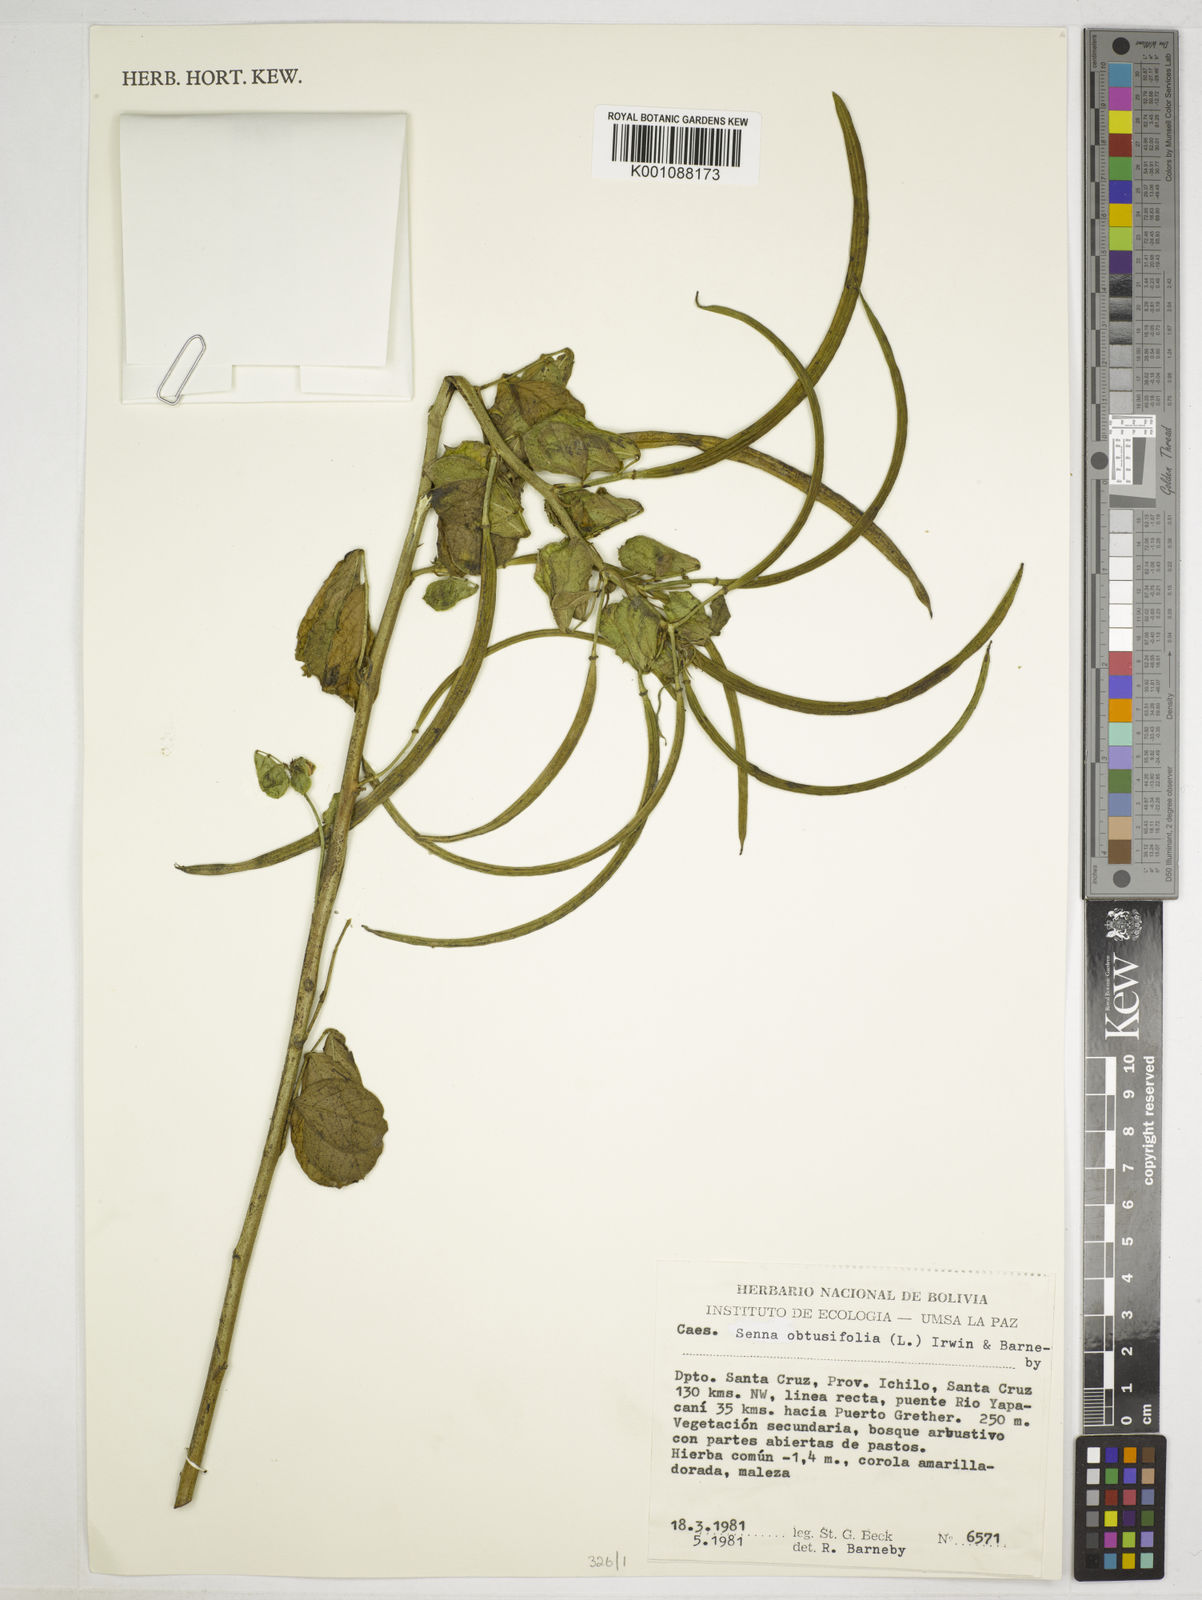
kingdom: Plantae
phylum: Tracheophyta
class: Magnoliopsida
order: Fabales
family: Fabaceae
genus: Senna
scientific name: Senna obtusifolia
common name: Java-bean
